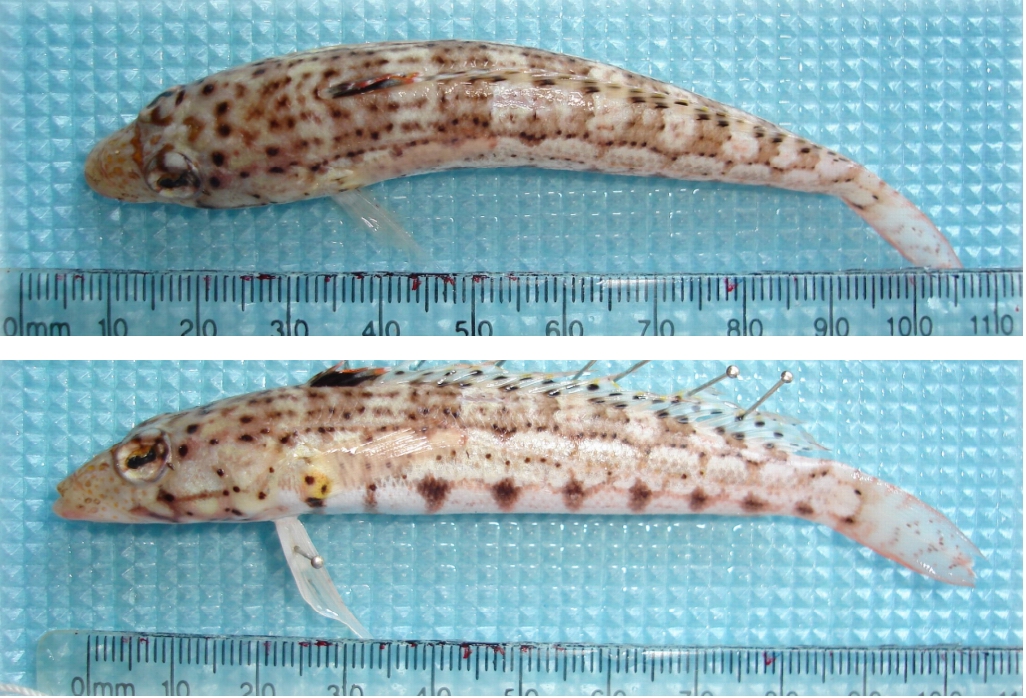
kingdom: Animalia
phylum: Chordata
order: Perciformes
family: Pinguipedidae
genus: Parapercis
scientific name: Parapercis punctulata
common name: Spotted sandperch
